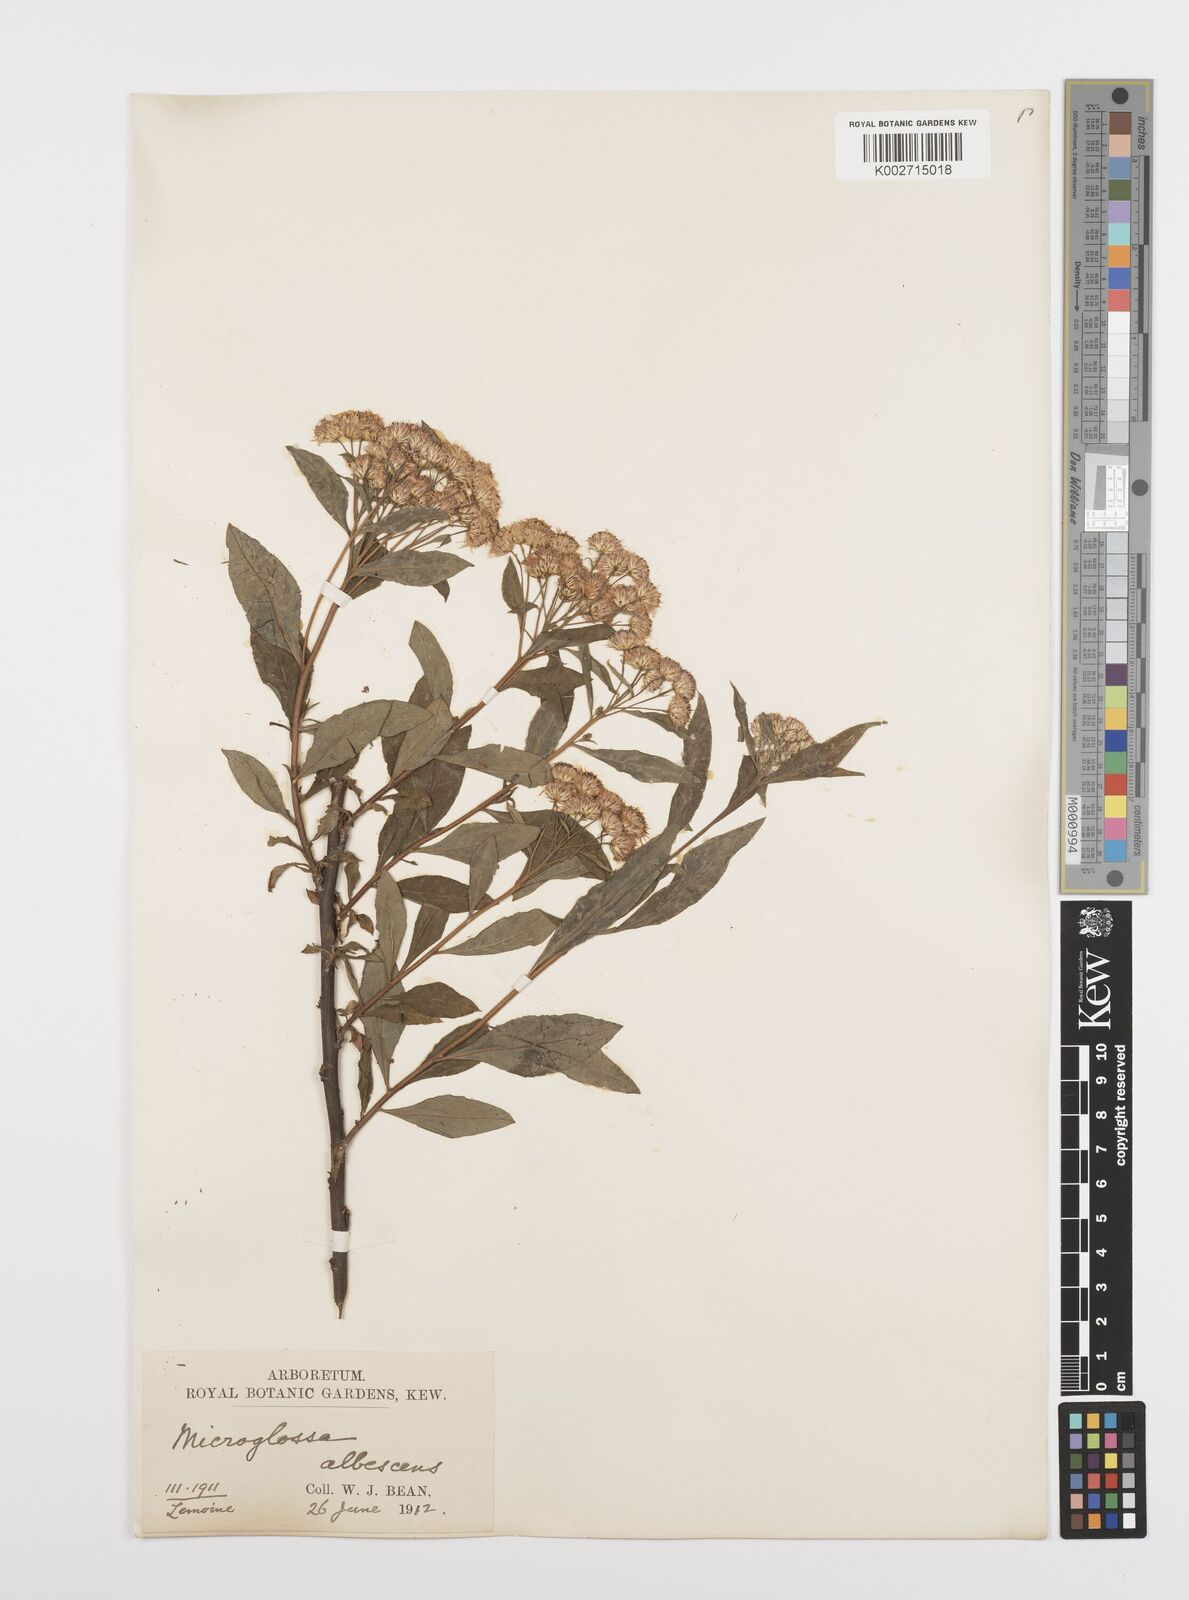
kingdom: Plantae
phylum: Tracheophyta
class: Magnoliopsida
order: Asterales
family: Asteraceae
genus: Sinosidus
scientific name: Sinosidus albescens
